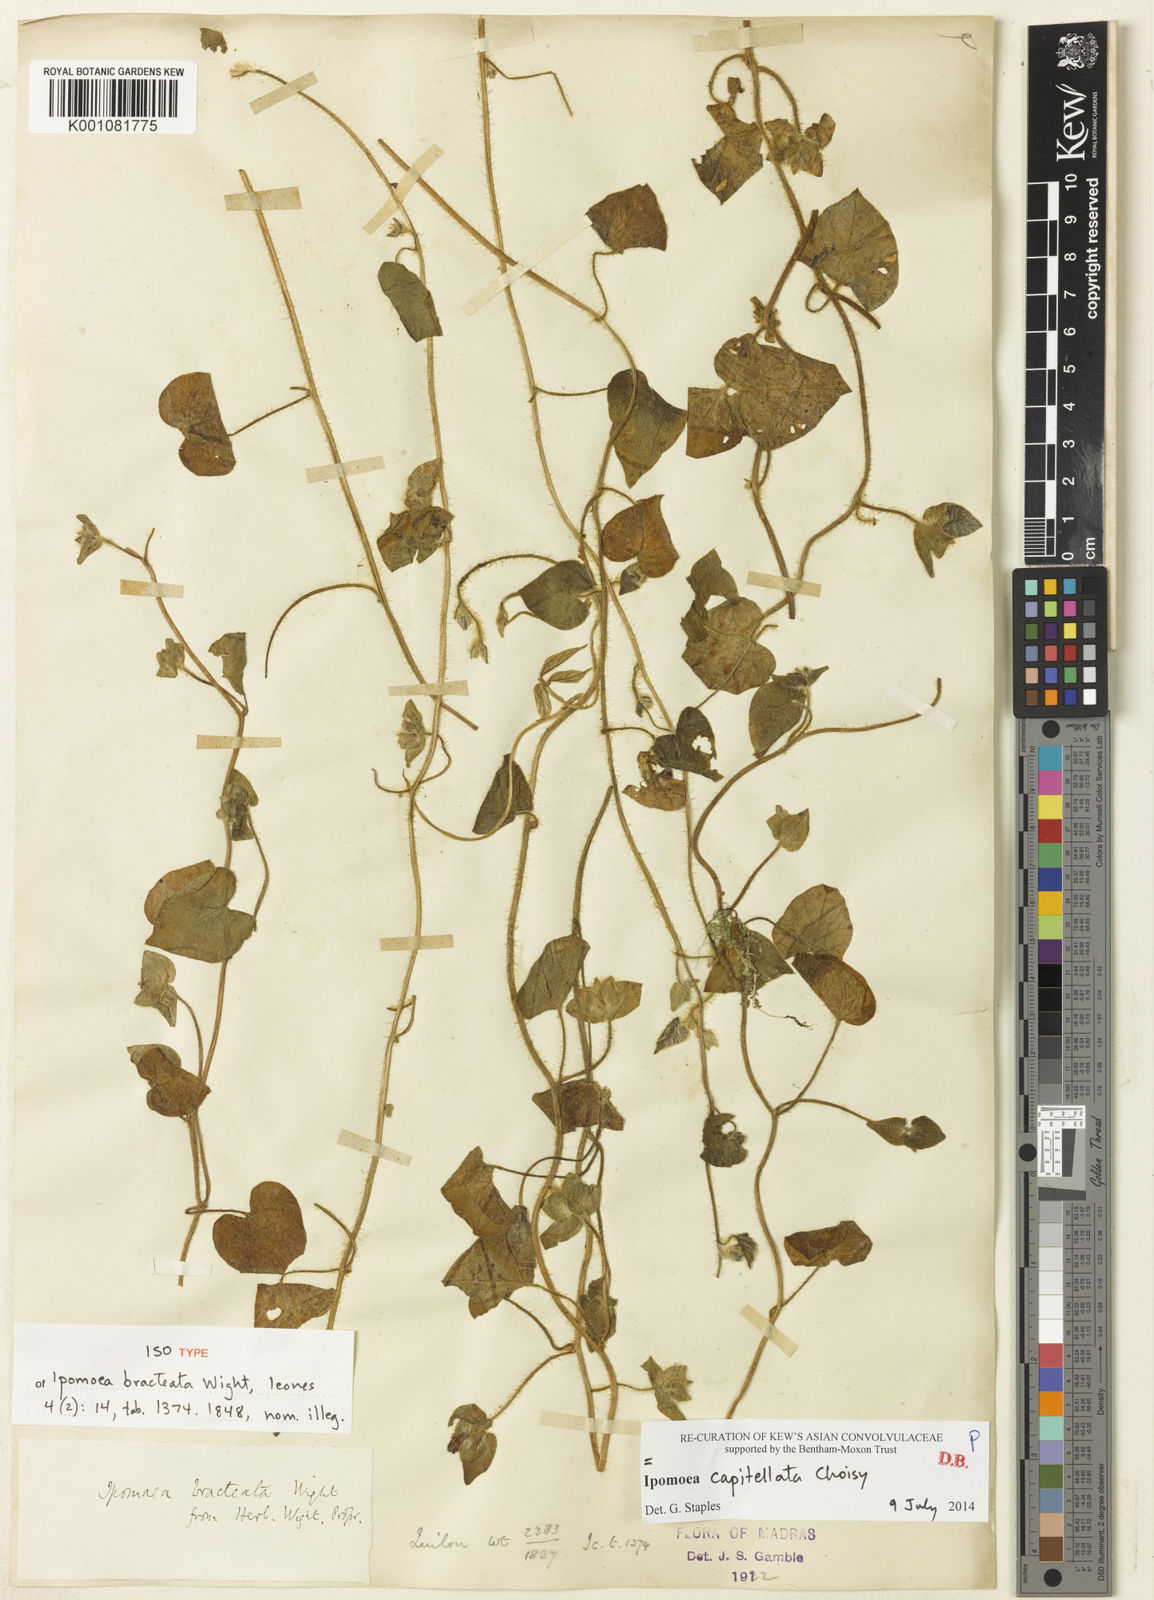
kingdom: Plantae
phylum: Tracheophyta
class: Magnoliopsida
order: Solanales
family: Convolvulaceae
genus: Ipomoea
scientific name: Ipomoea pes-tigridis
